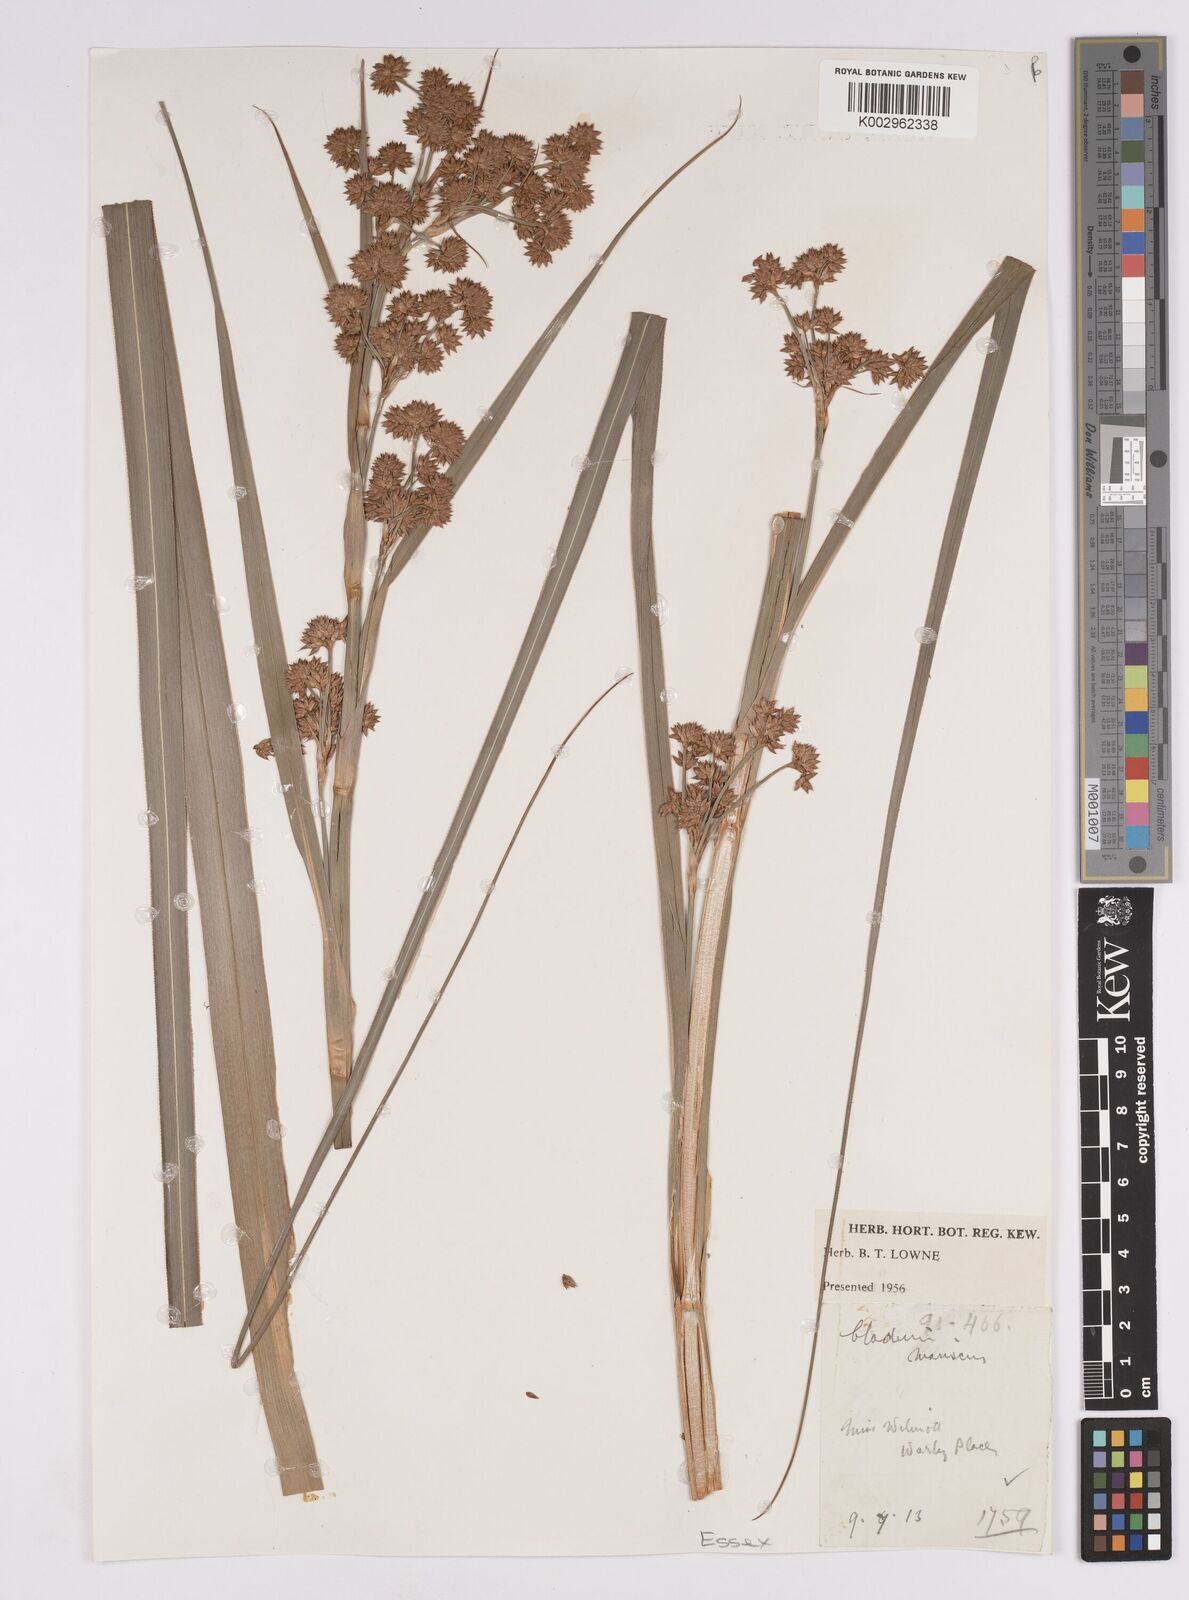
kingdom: Plantae
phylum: Tracheophyta
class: Liliopsida
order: Poales
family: Cyperaceae
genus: Cladium
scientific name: Cladium mariscus
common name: Great fen-sedge
